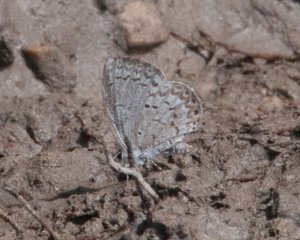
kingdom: Animalia
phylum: Arthropoda
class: Insecta
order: Lepidoptera
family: Lycaenidae
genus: Celastrina
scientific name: Celastrina lucia
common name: Northern Spring Azure
